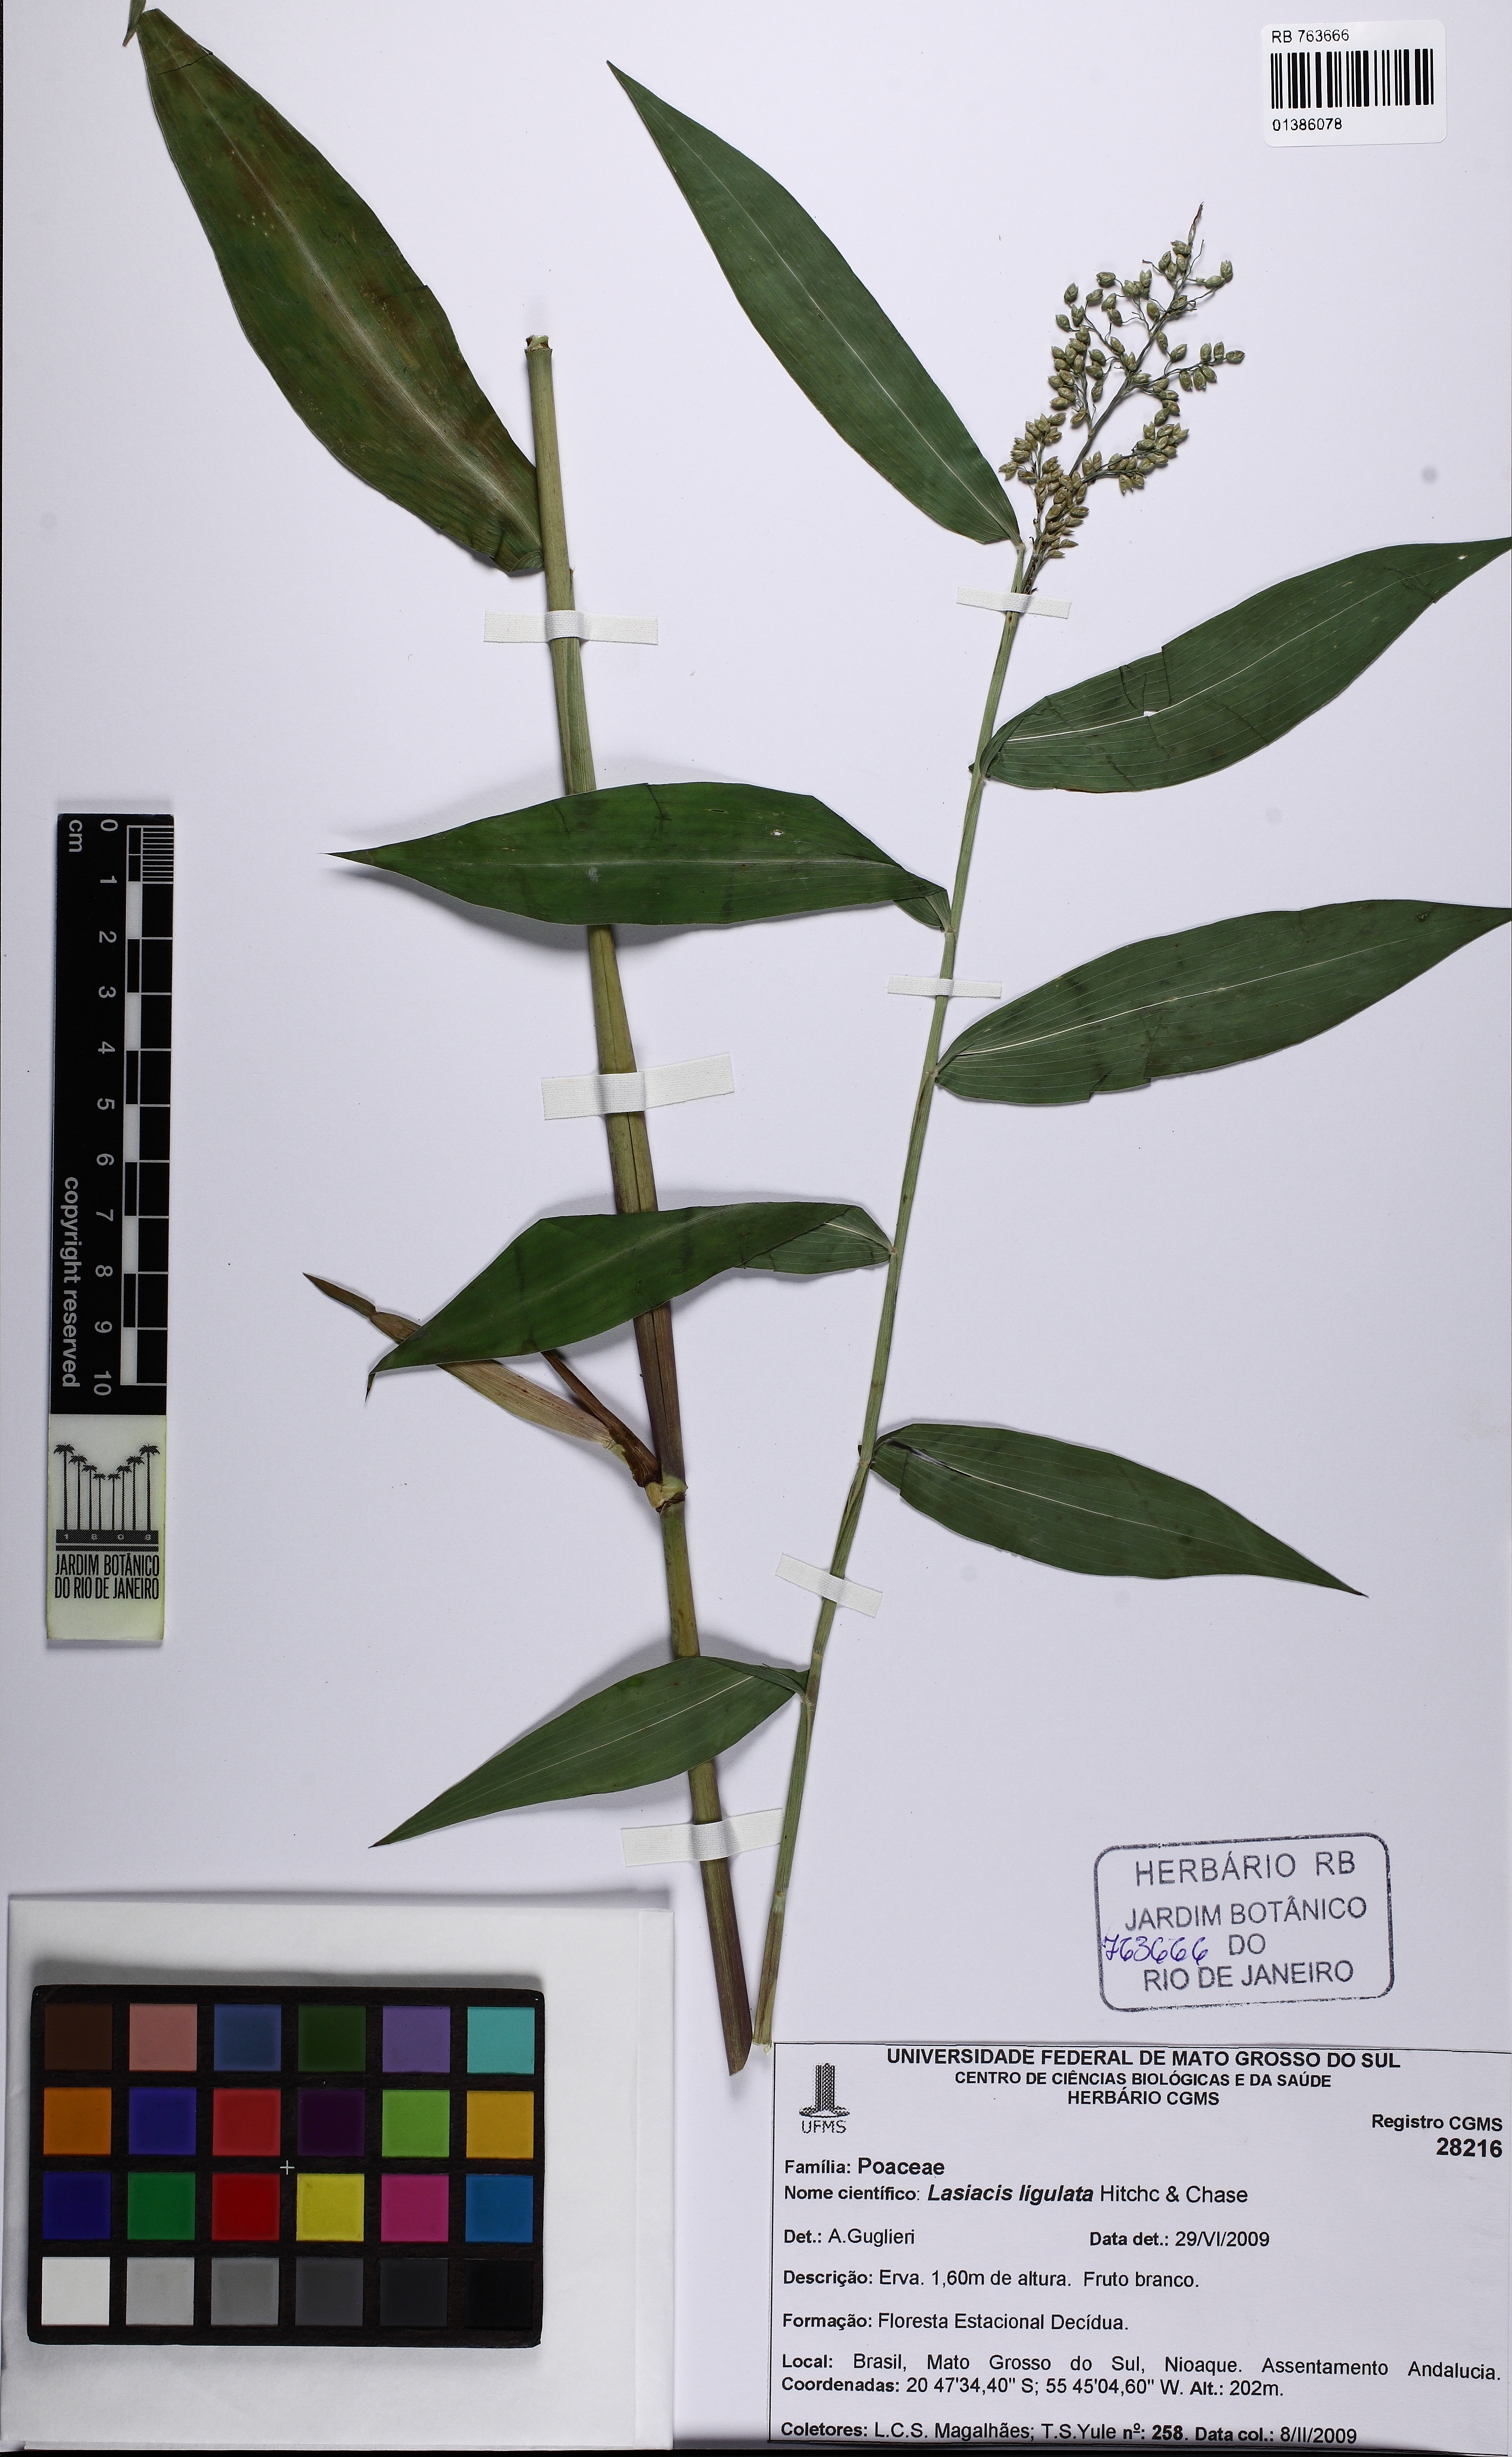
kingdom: Plantae
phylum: Tracheophyta
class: Liliopsida
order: Poales
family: Poaceae
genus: Lasiacis
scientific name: Lasiacis ligulata
